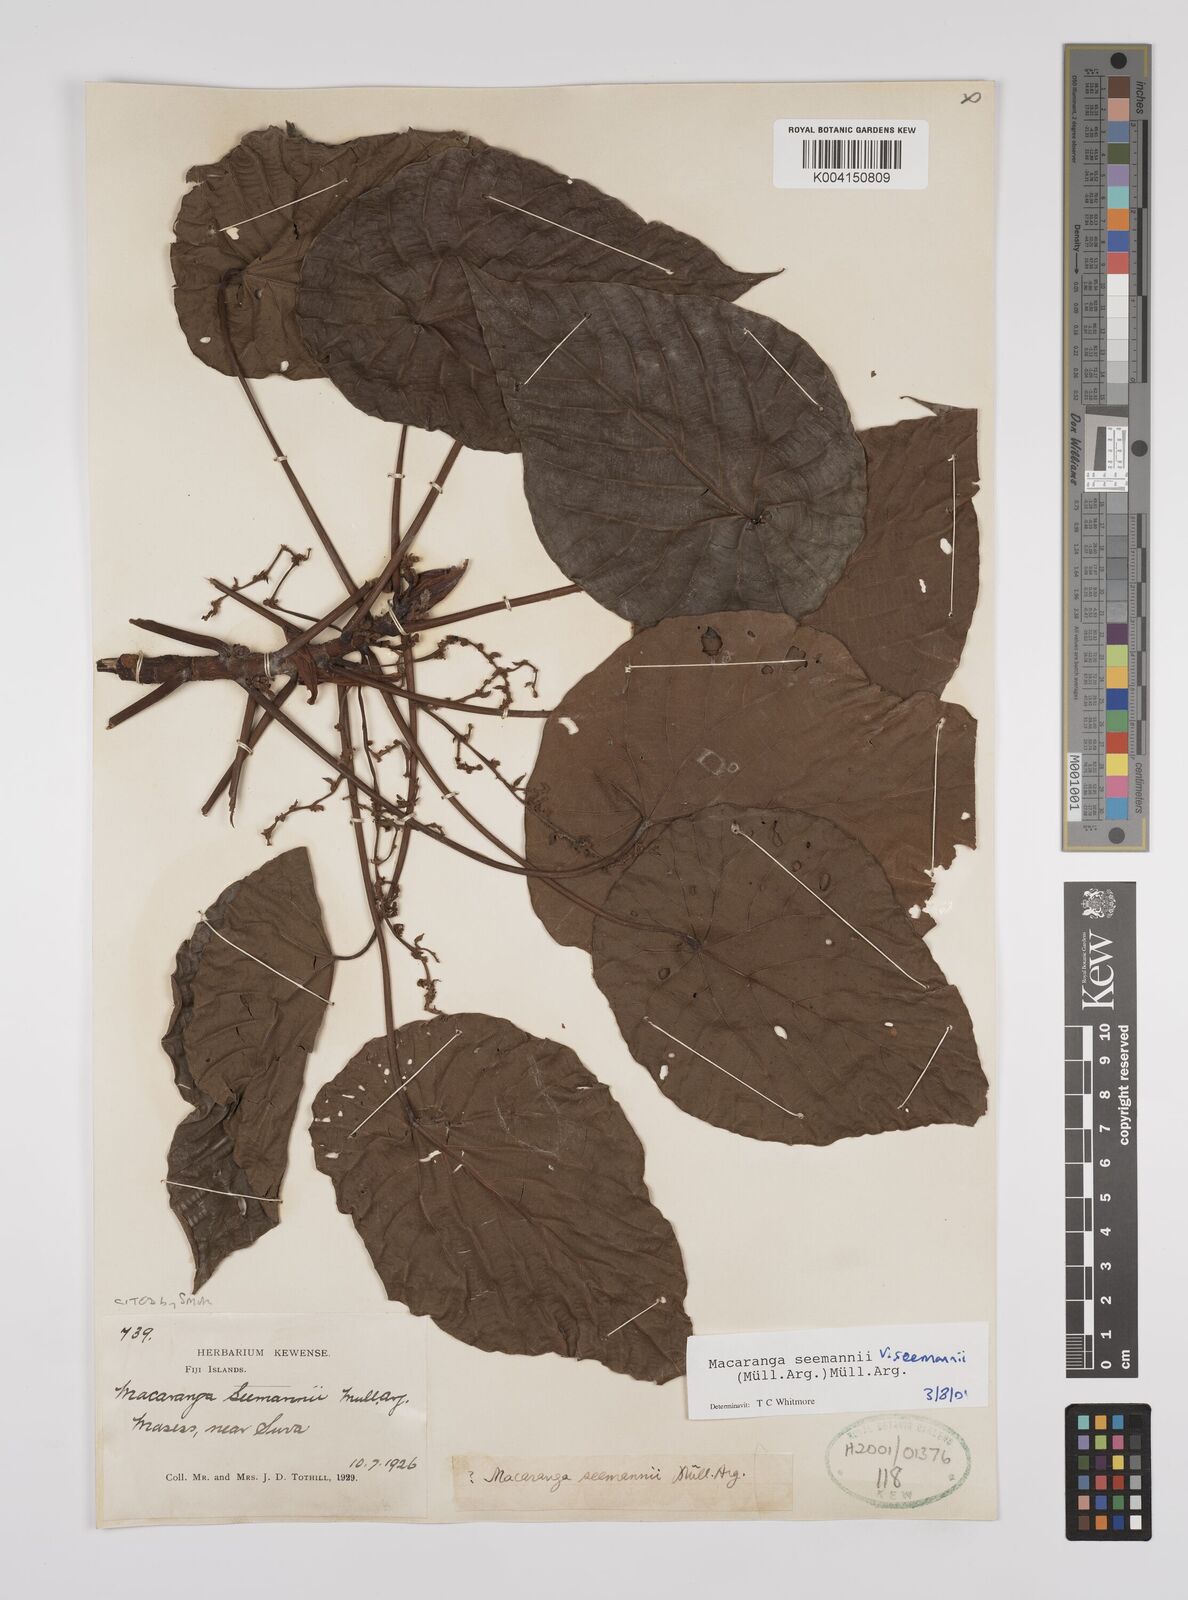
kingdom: Plantae
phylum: Tracheophyta
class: Magnoliopsida
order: Malpighiales
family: Euphorbiaceae
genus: Macaranga
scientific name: Macaranga seemannii
